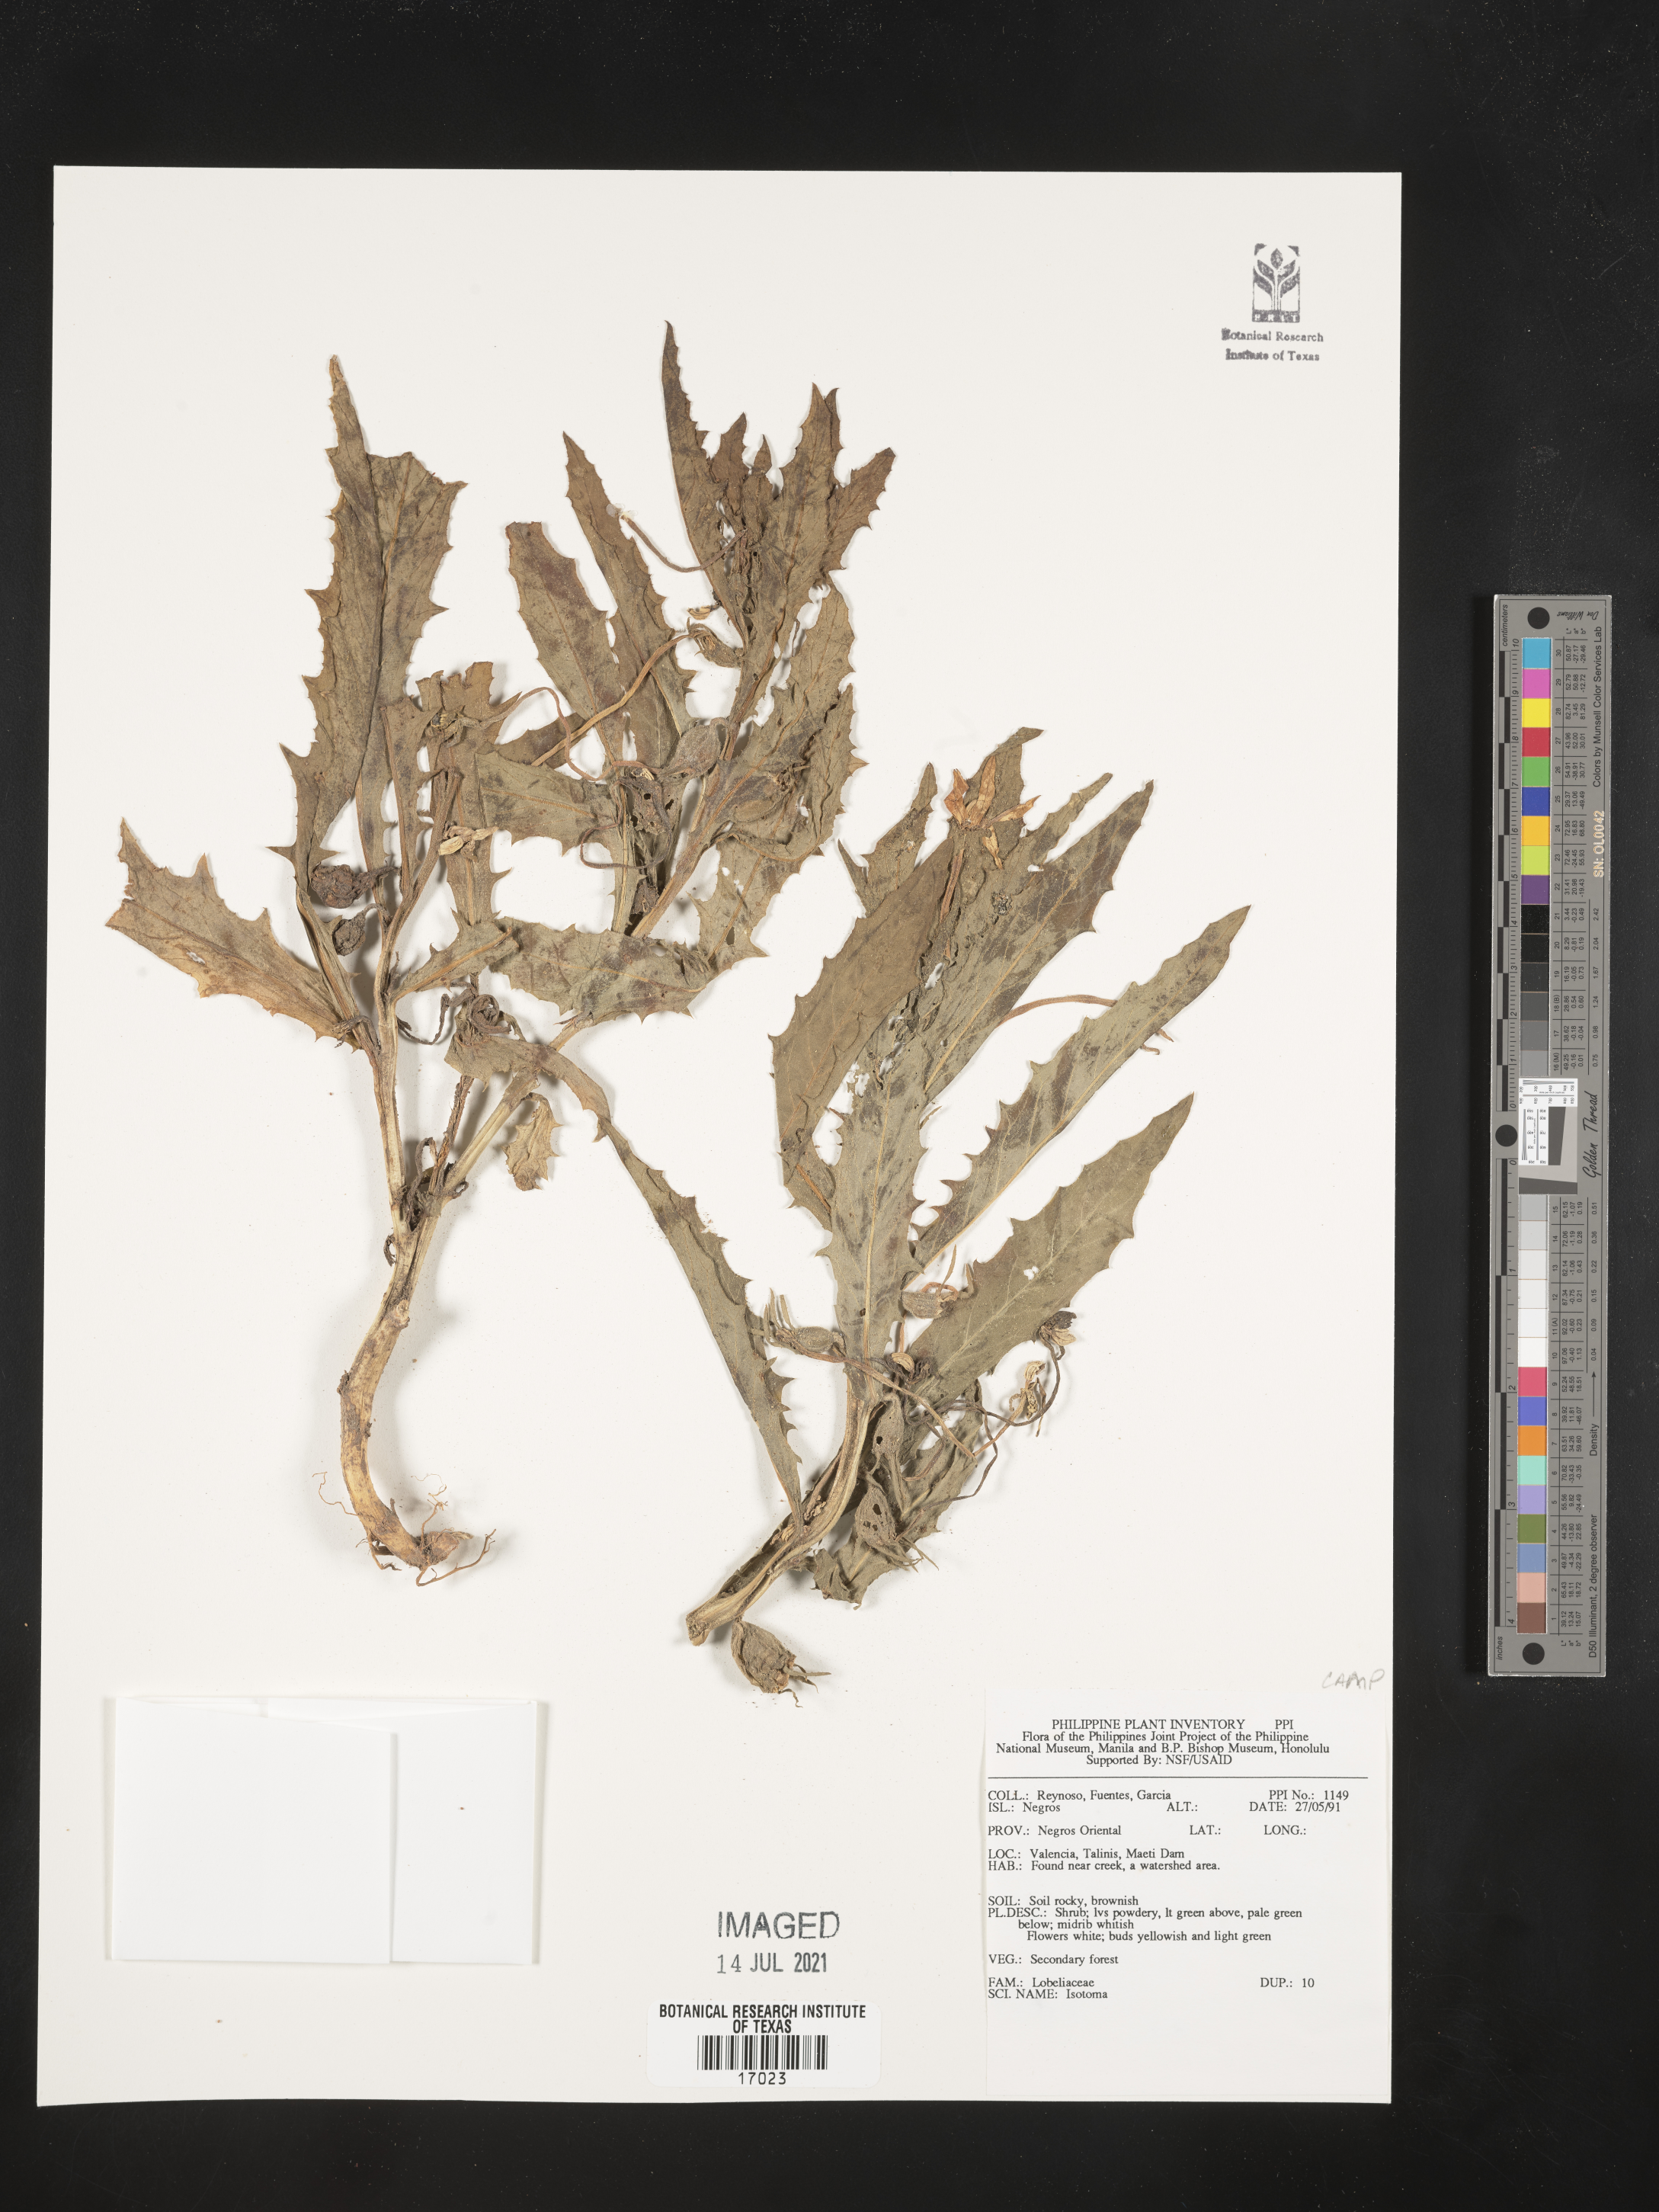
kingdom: Plantae
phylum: Tracheophyta
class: Magnoliopsida
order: Asterales
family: Campanulaceae
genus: Isotoma
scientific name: Isotoma
